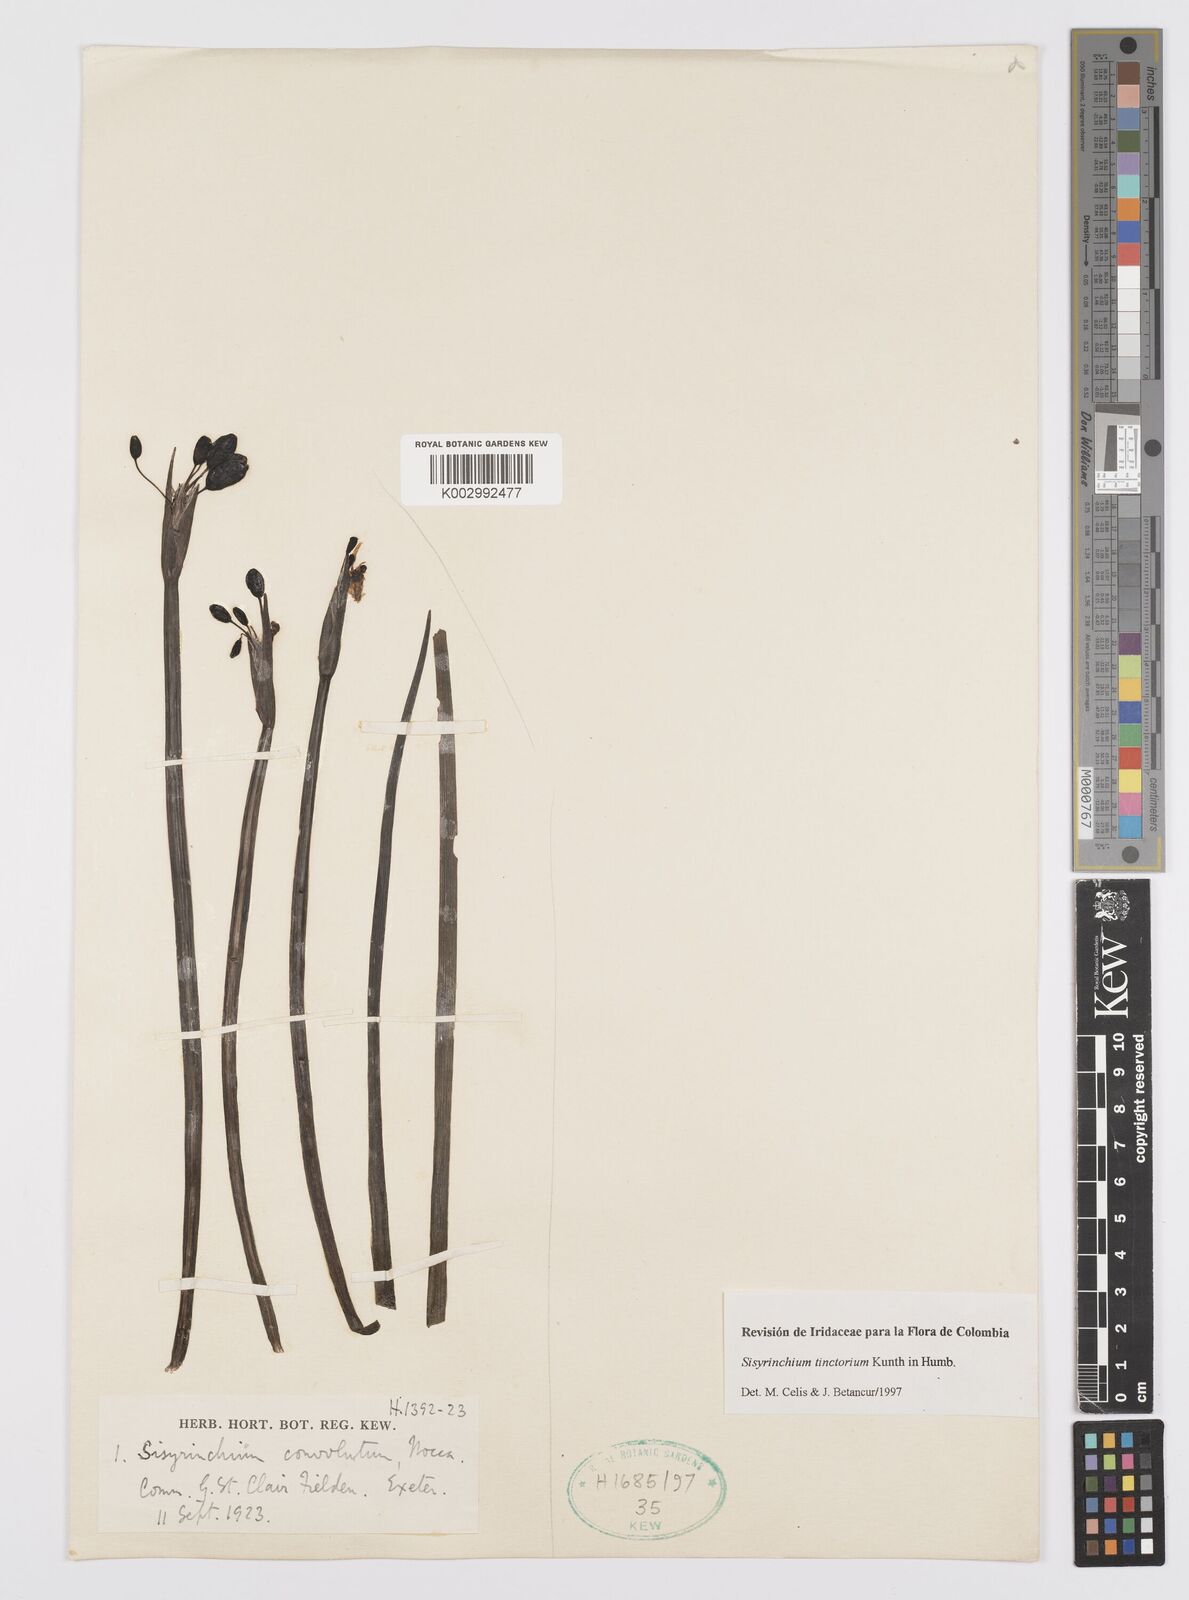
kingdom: Plantae
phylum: Tracheophyta
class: Liliopsida
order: Asparagales
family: Iridaceae
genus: Sisyrinchium
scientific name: Sisyrinchium tinctorium
